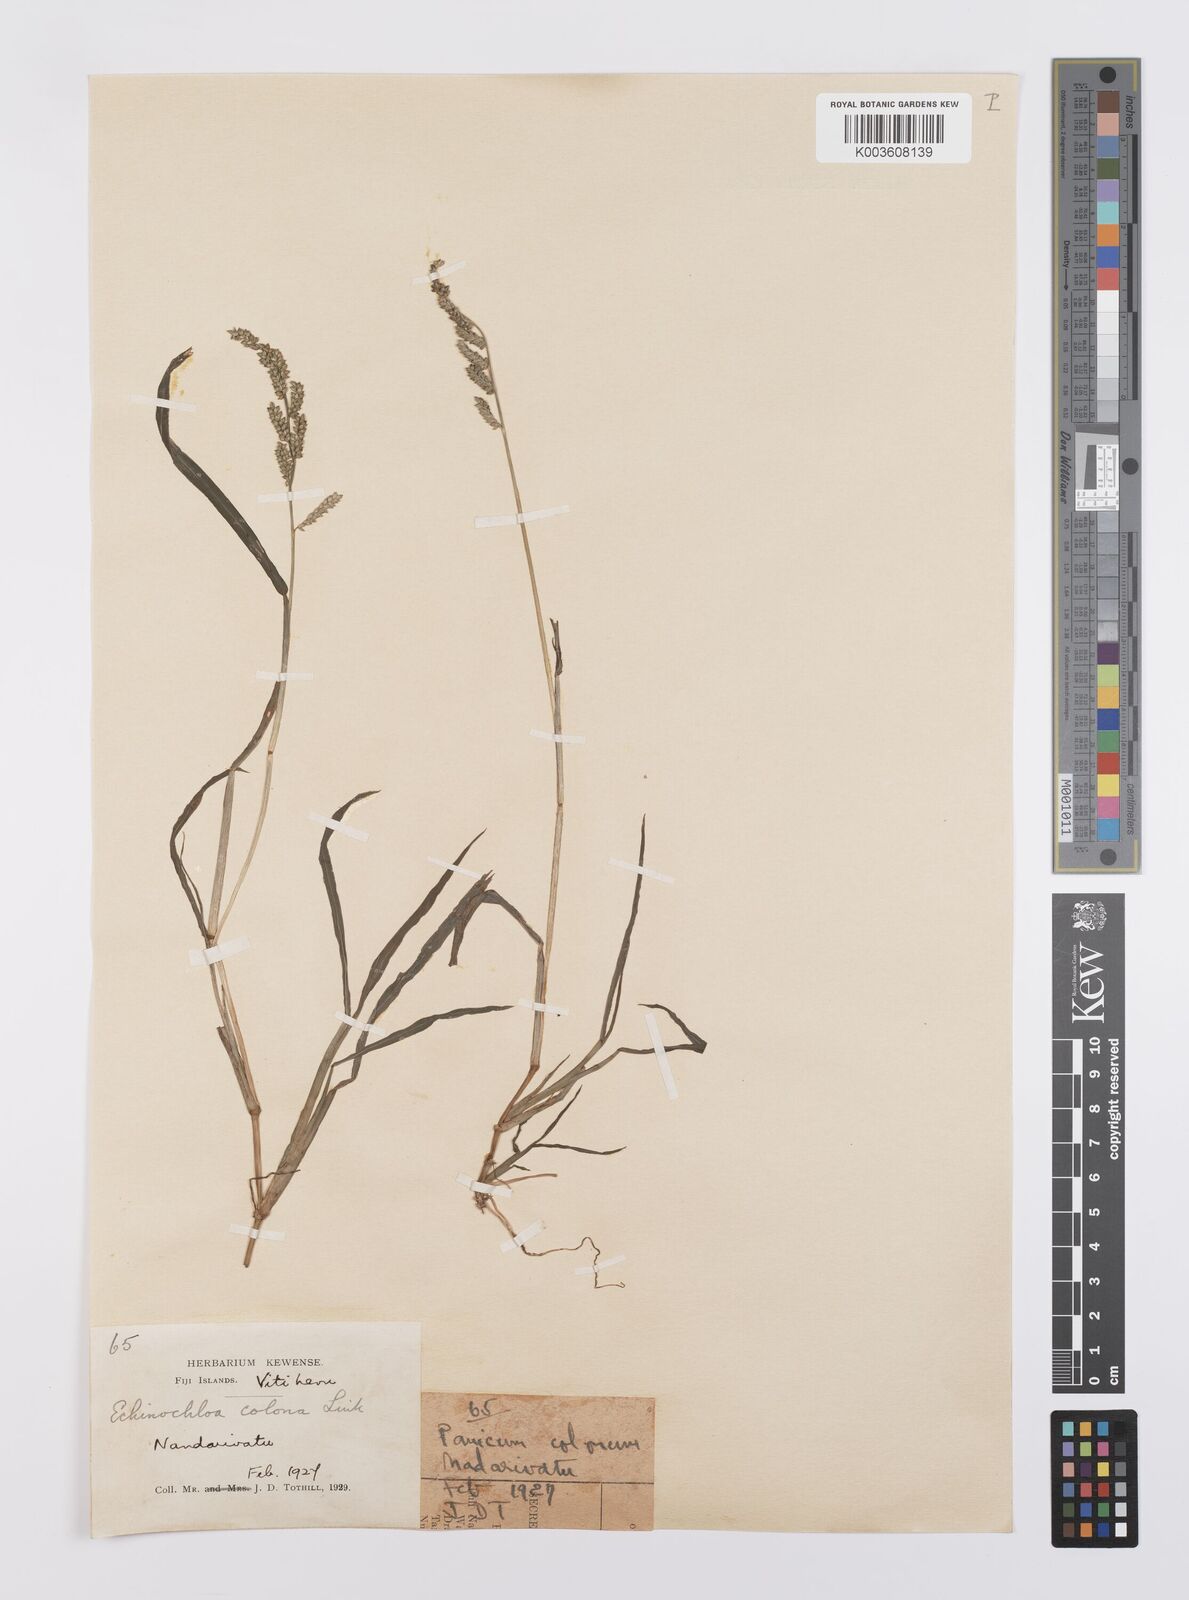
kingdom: Plantae
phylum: Tracheophyta
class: Liliopsida
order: Poales
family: Poaceae
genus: Echinochloa
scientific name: Echinochloa colonum
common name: Jungle rice
